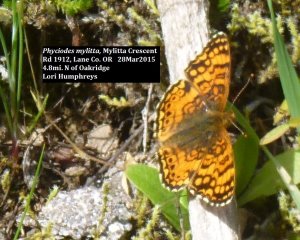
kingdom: Animalia
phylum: Arthropoda
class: Insecta
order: Lepidoptera
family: Nymphalidae
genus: Eresia
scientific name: Eresia aveyrona
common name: Mylitta Crescent
